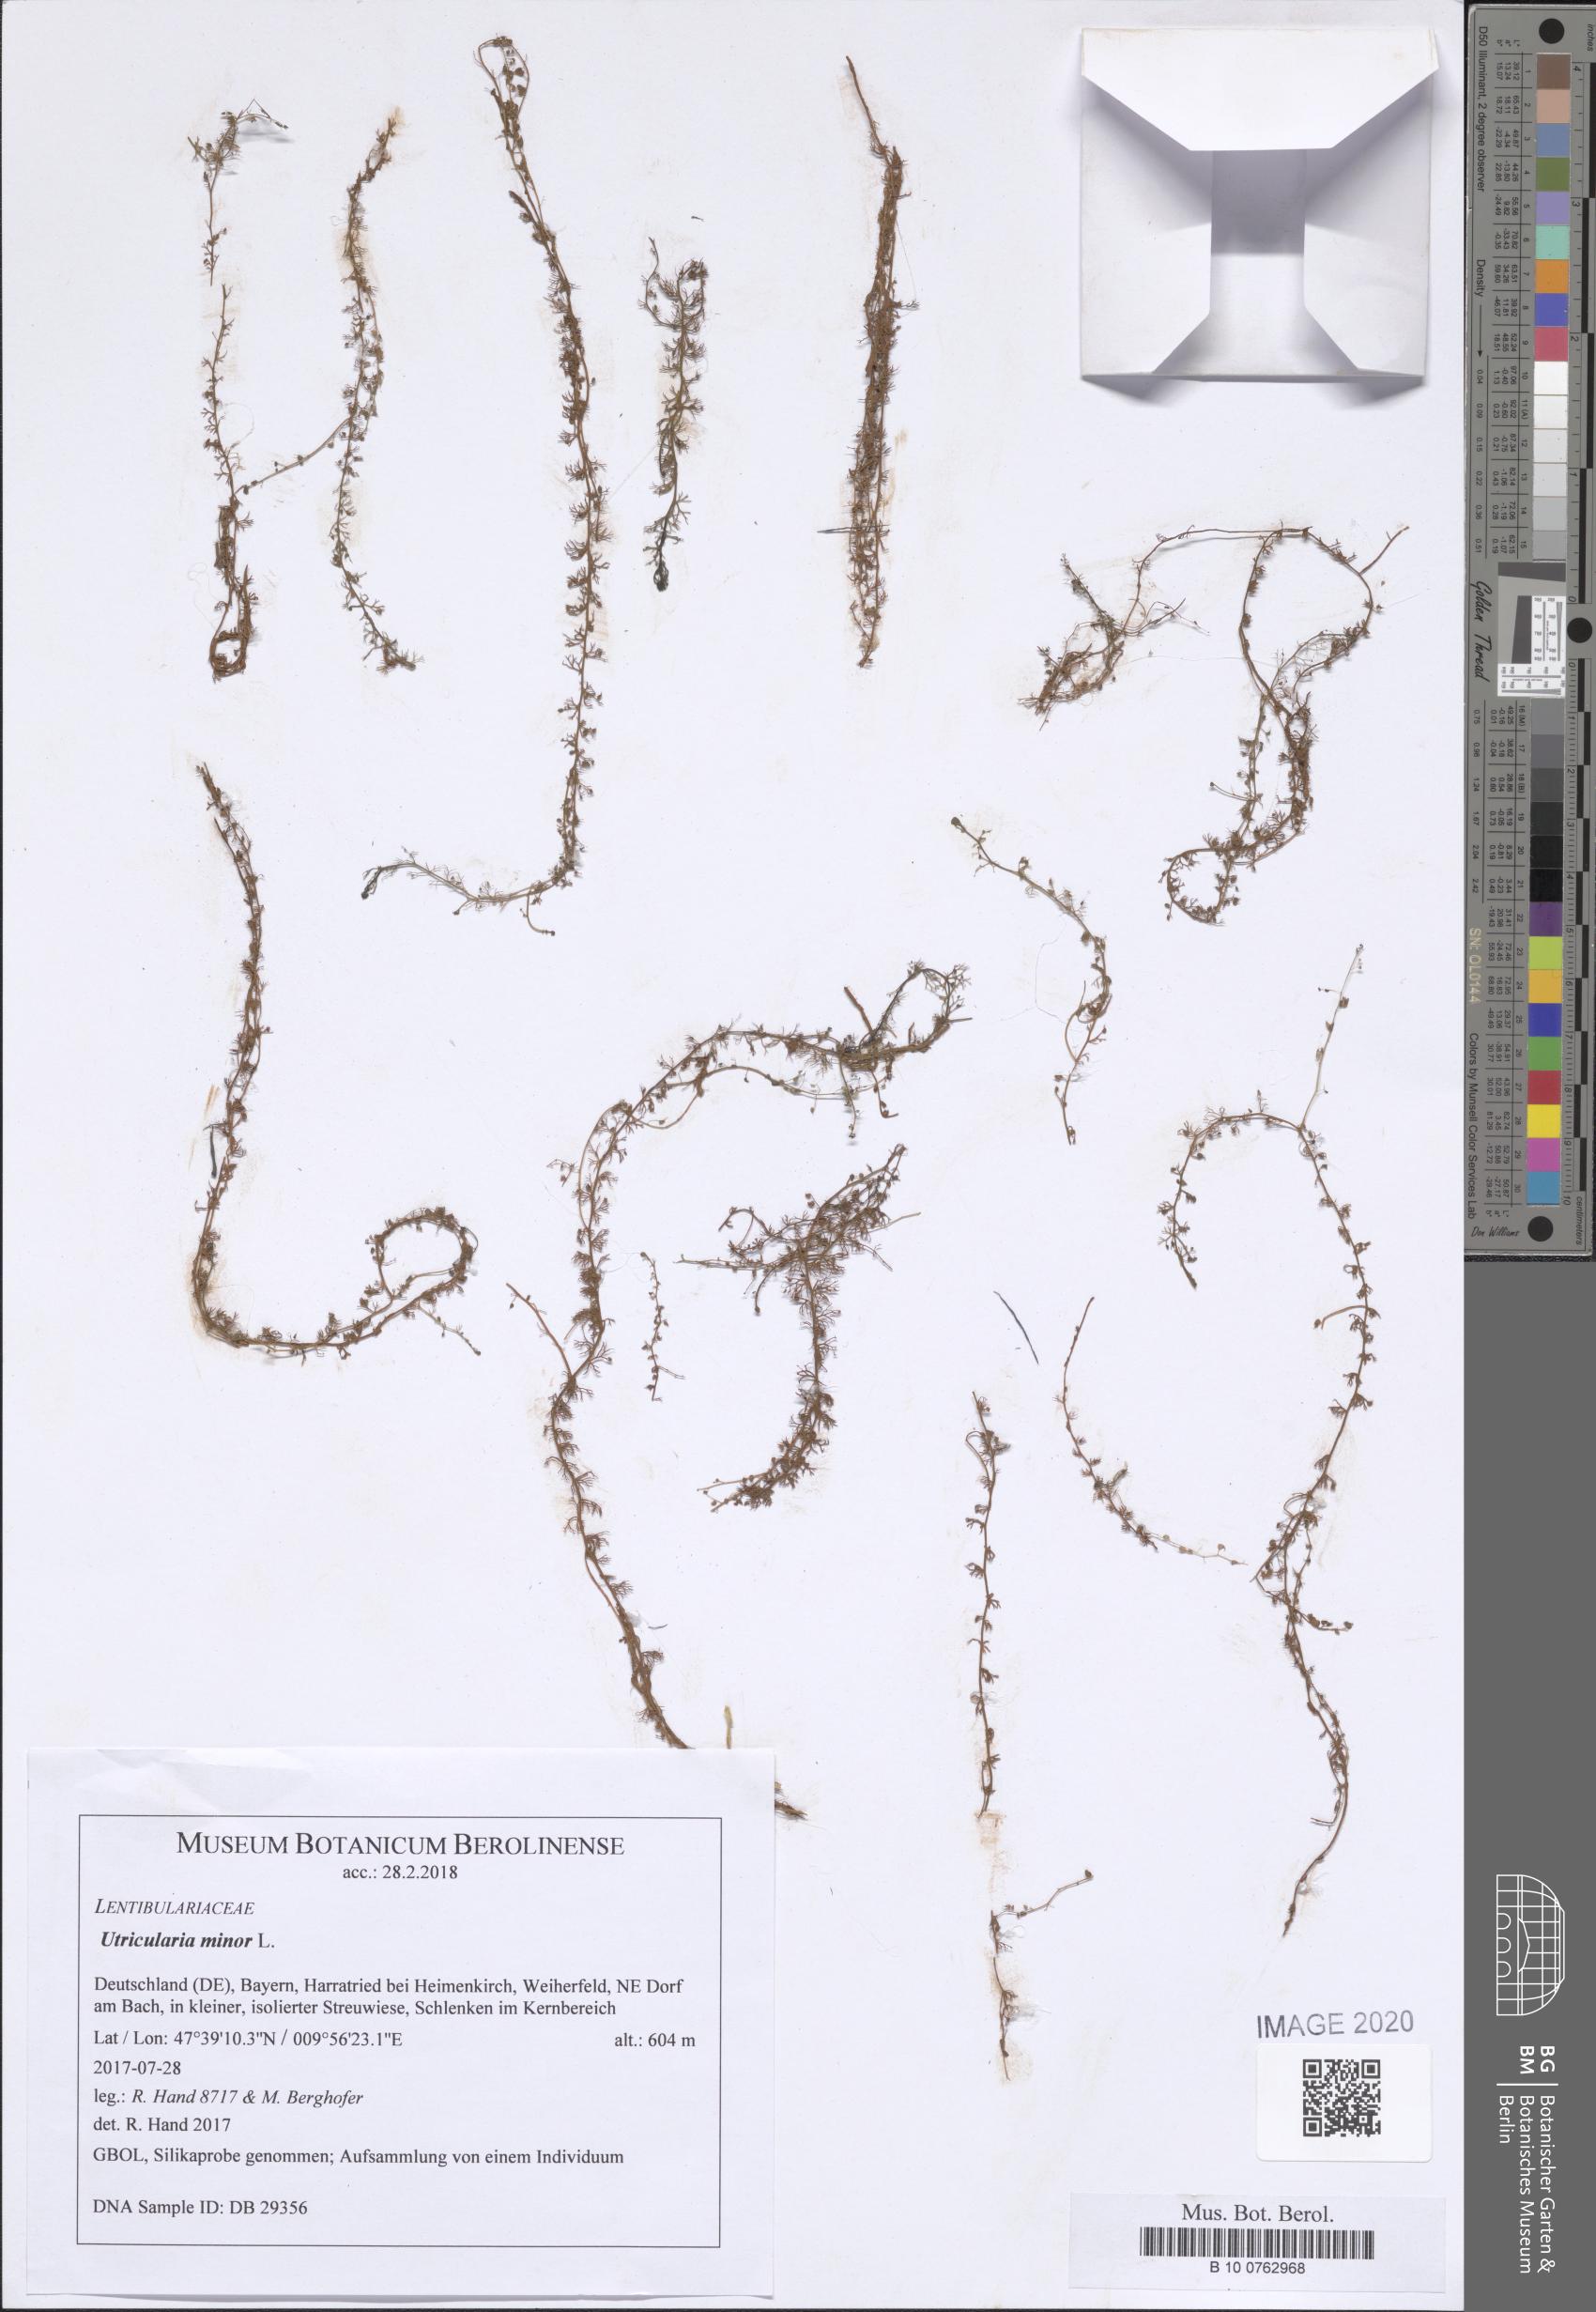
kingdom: Plantae
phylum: Tracheophyta
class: Magnoliopsida
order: Lamiales
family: Lentibulariaceae
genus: Utricularia
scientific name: Utricularia minor
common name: Lesser bladderwort
